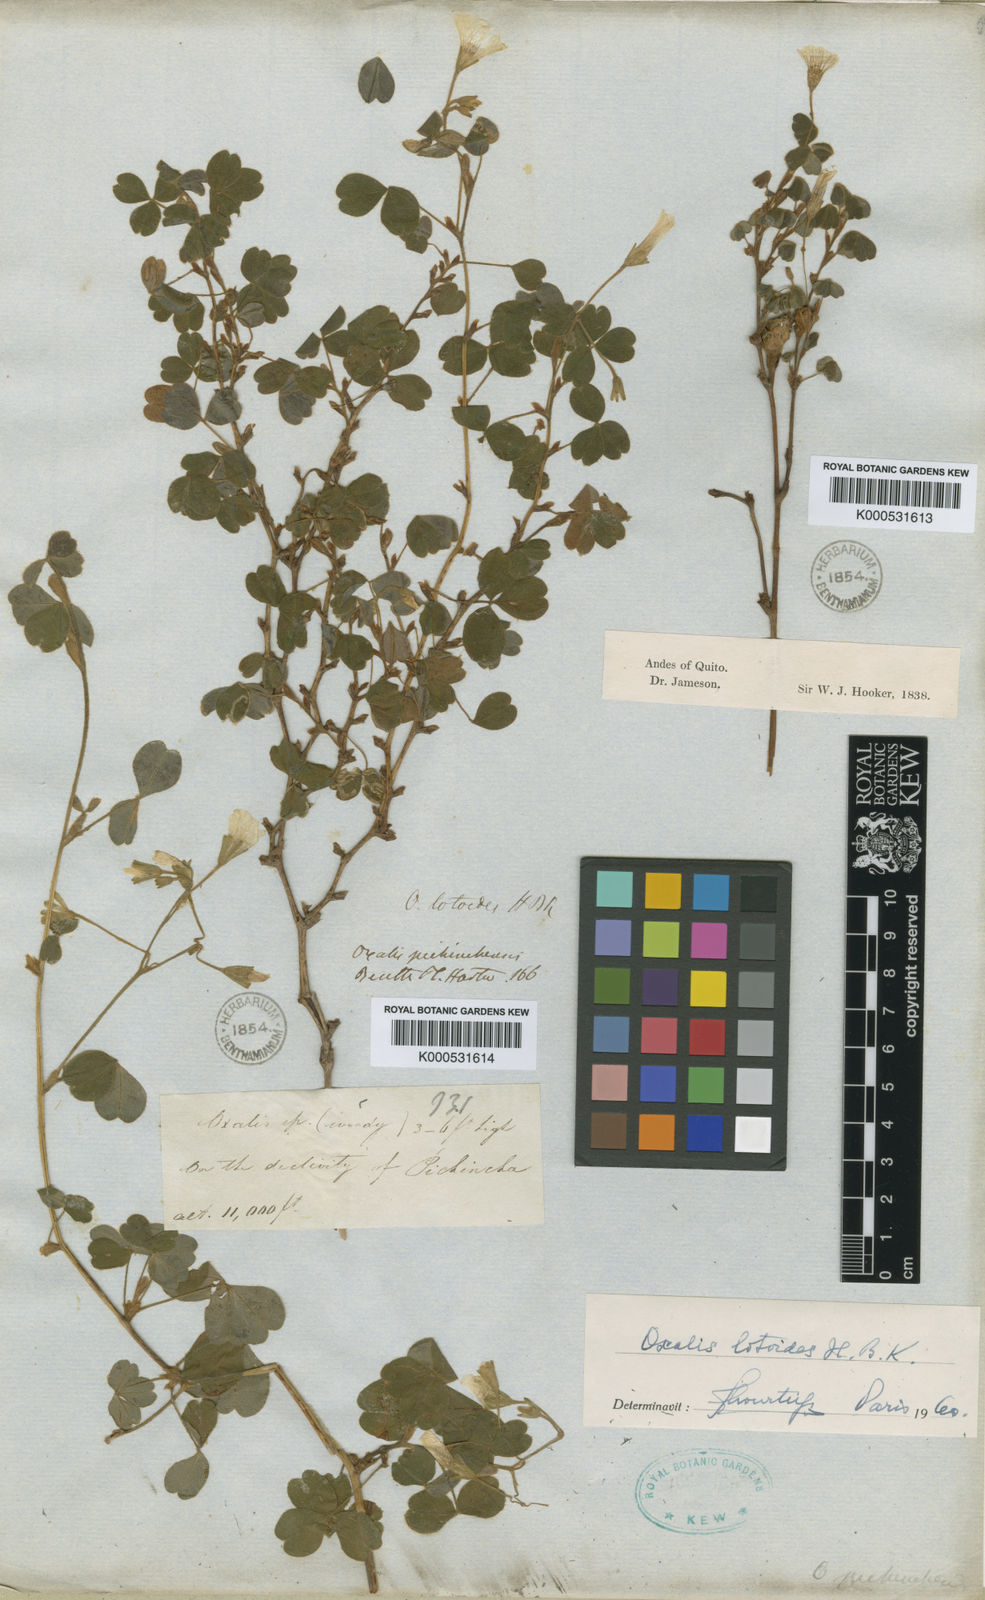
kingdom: Plantae
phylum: Tracheophyta
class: Magnoliopsida
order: Oxalidales
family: Oxalidaceae
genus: Oxalis
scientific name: Oxalis lotoides
